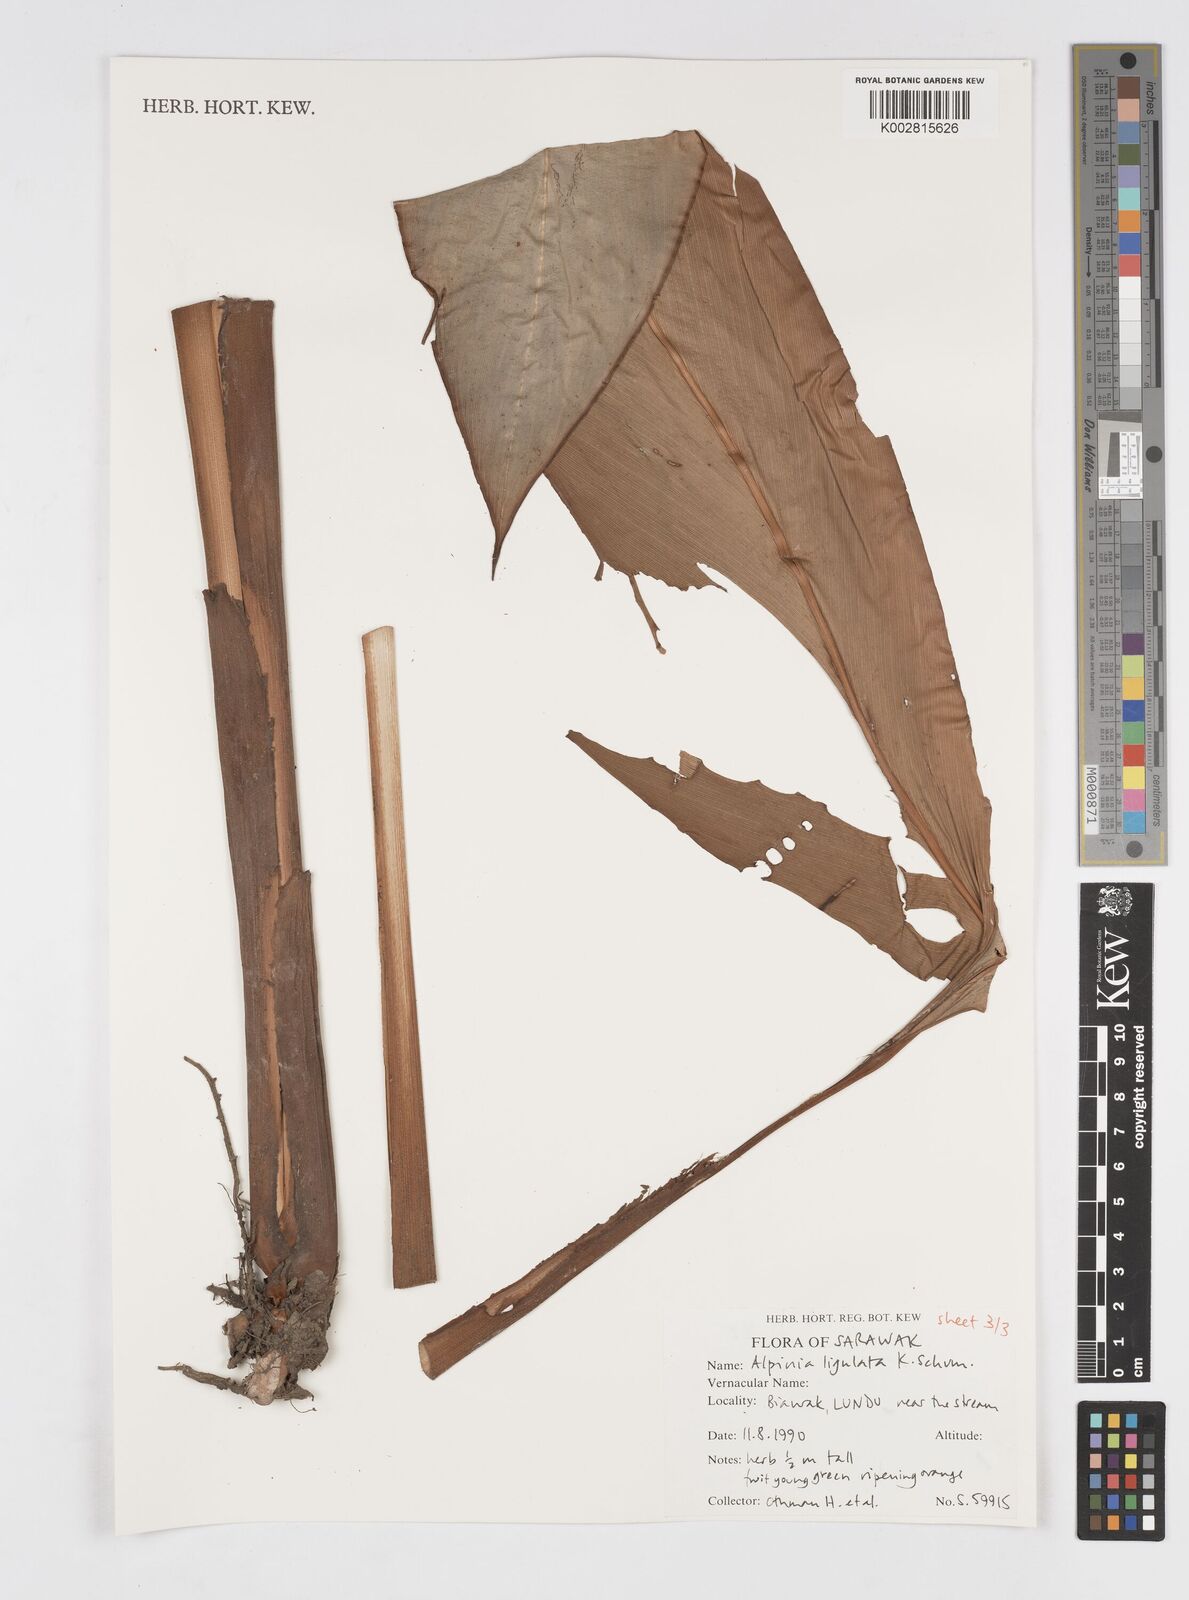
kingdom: Plantae
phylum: Tracheophyta
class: Liliopsida
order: Zingiberales
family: Zingiberaceae
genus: Alpinia
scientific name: Alpinia ligulata
